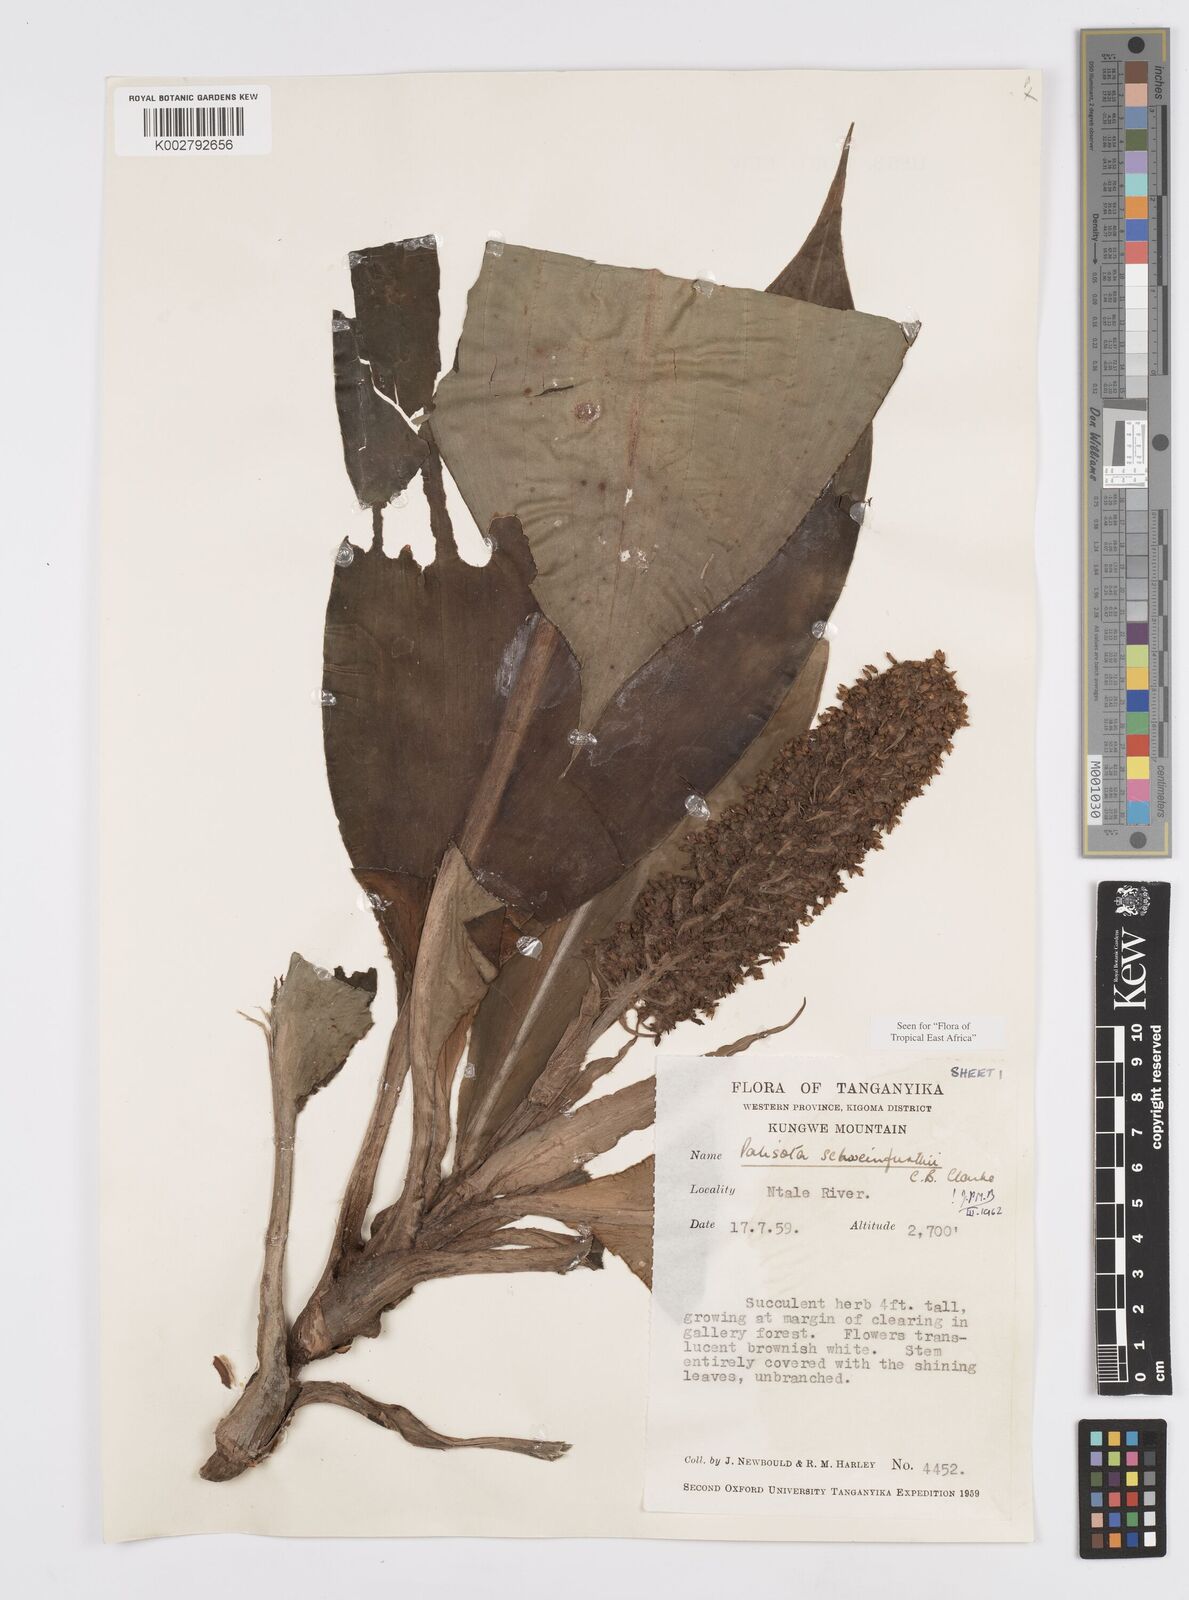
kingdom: Plantae
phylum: Tracheophyta
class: Liliopsida
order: Commelinales
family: Commelinaceae
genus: Palisota
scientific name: Palisota schweinfurthii
